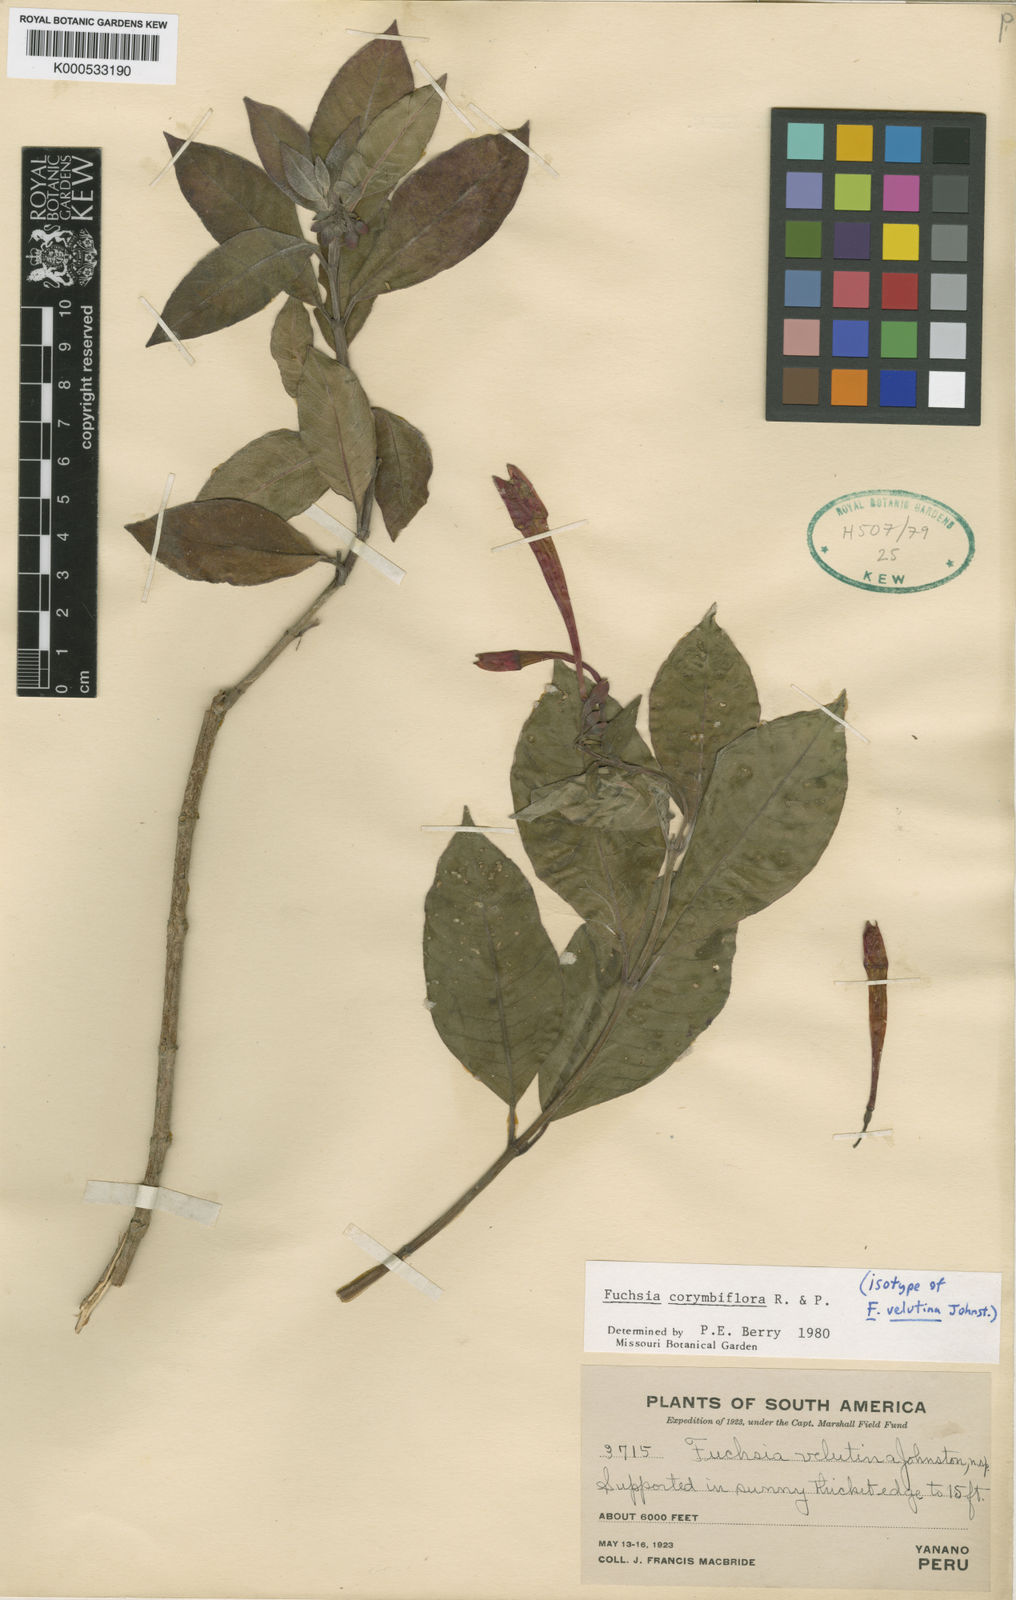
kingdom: Plantae
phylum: Tracheophyta
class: Magnoliopsida
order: Myrtales
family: Onagraceae
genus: Fuchsia
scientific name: Fuchsia corymbiflora
